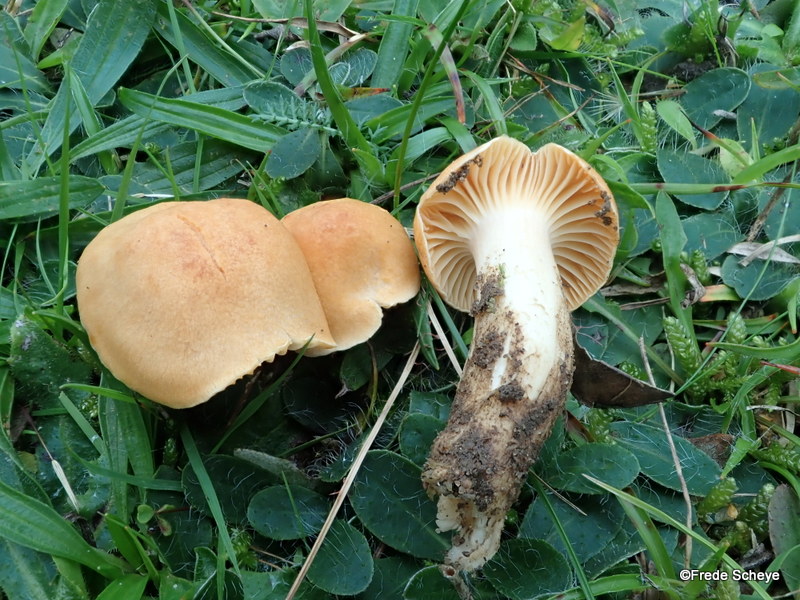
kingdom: Fungi
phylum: Basidiomycota
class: Agaricomycetes
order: Agaricales
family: Hygrophoraceae
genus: Cuphophyllus
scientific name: Cuphophyllus pratensis
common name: eng-vokshat
